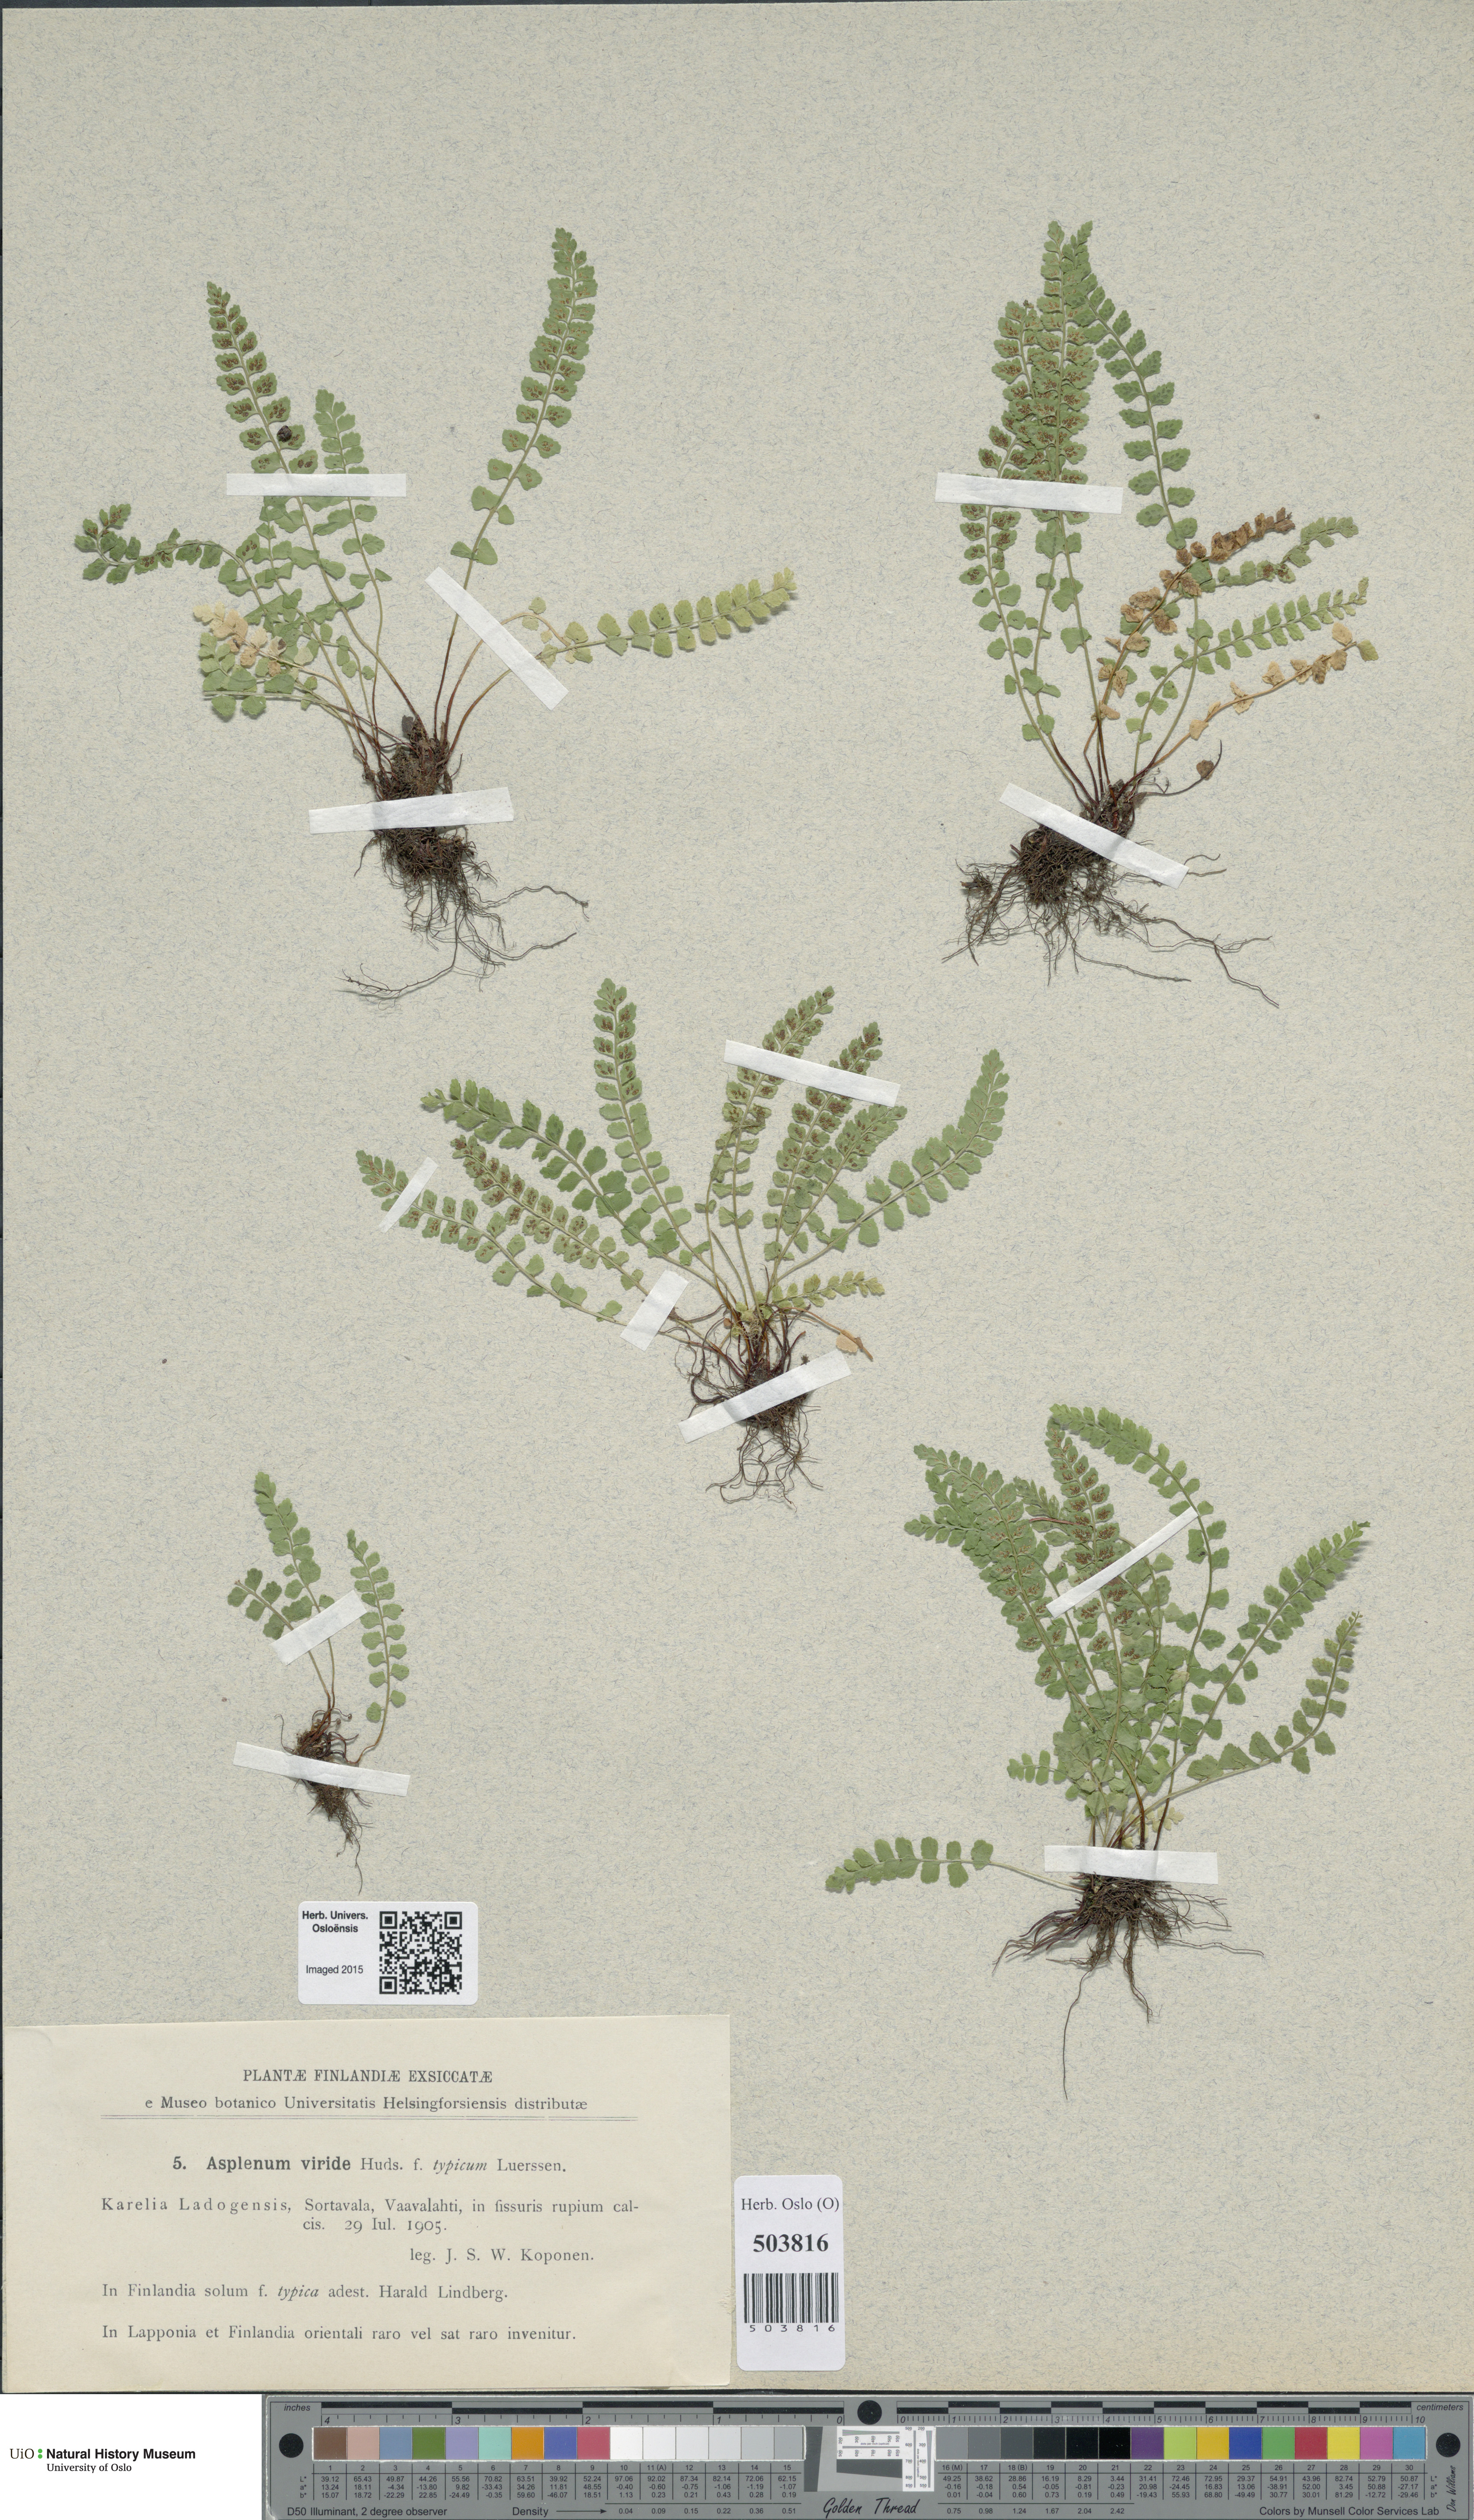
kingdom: Plantae
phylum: Tracheophyta
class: Polypodiopsida
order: Polypodiales
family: Aspleniaceae
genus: Asplenium
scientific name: Asplenium viride
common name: Green spleenwort
